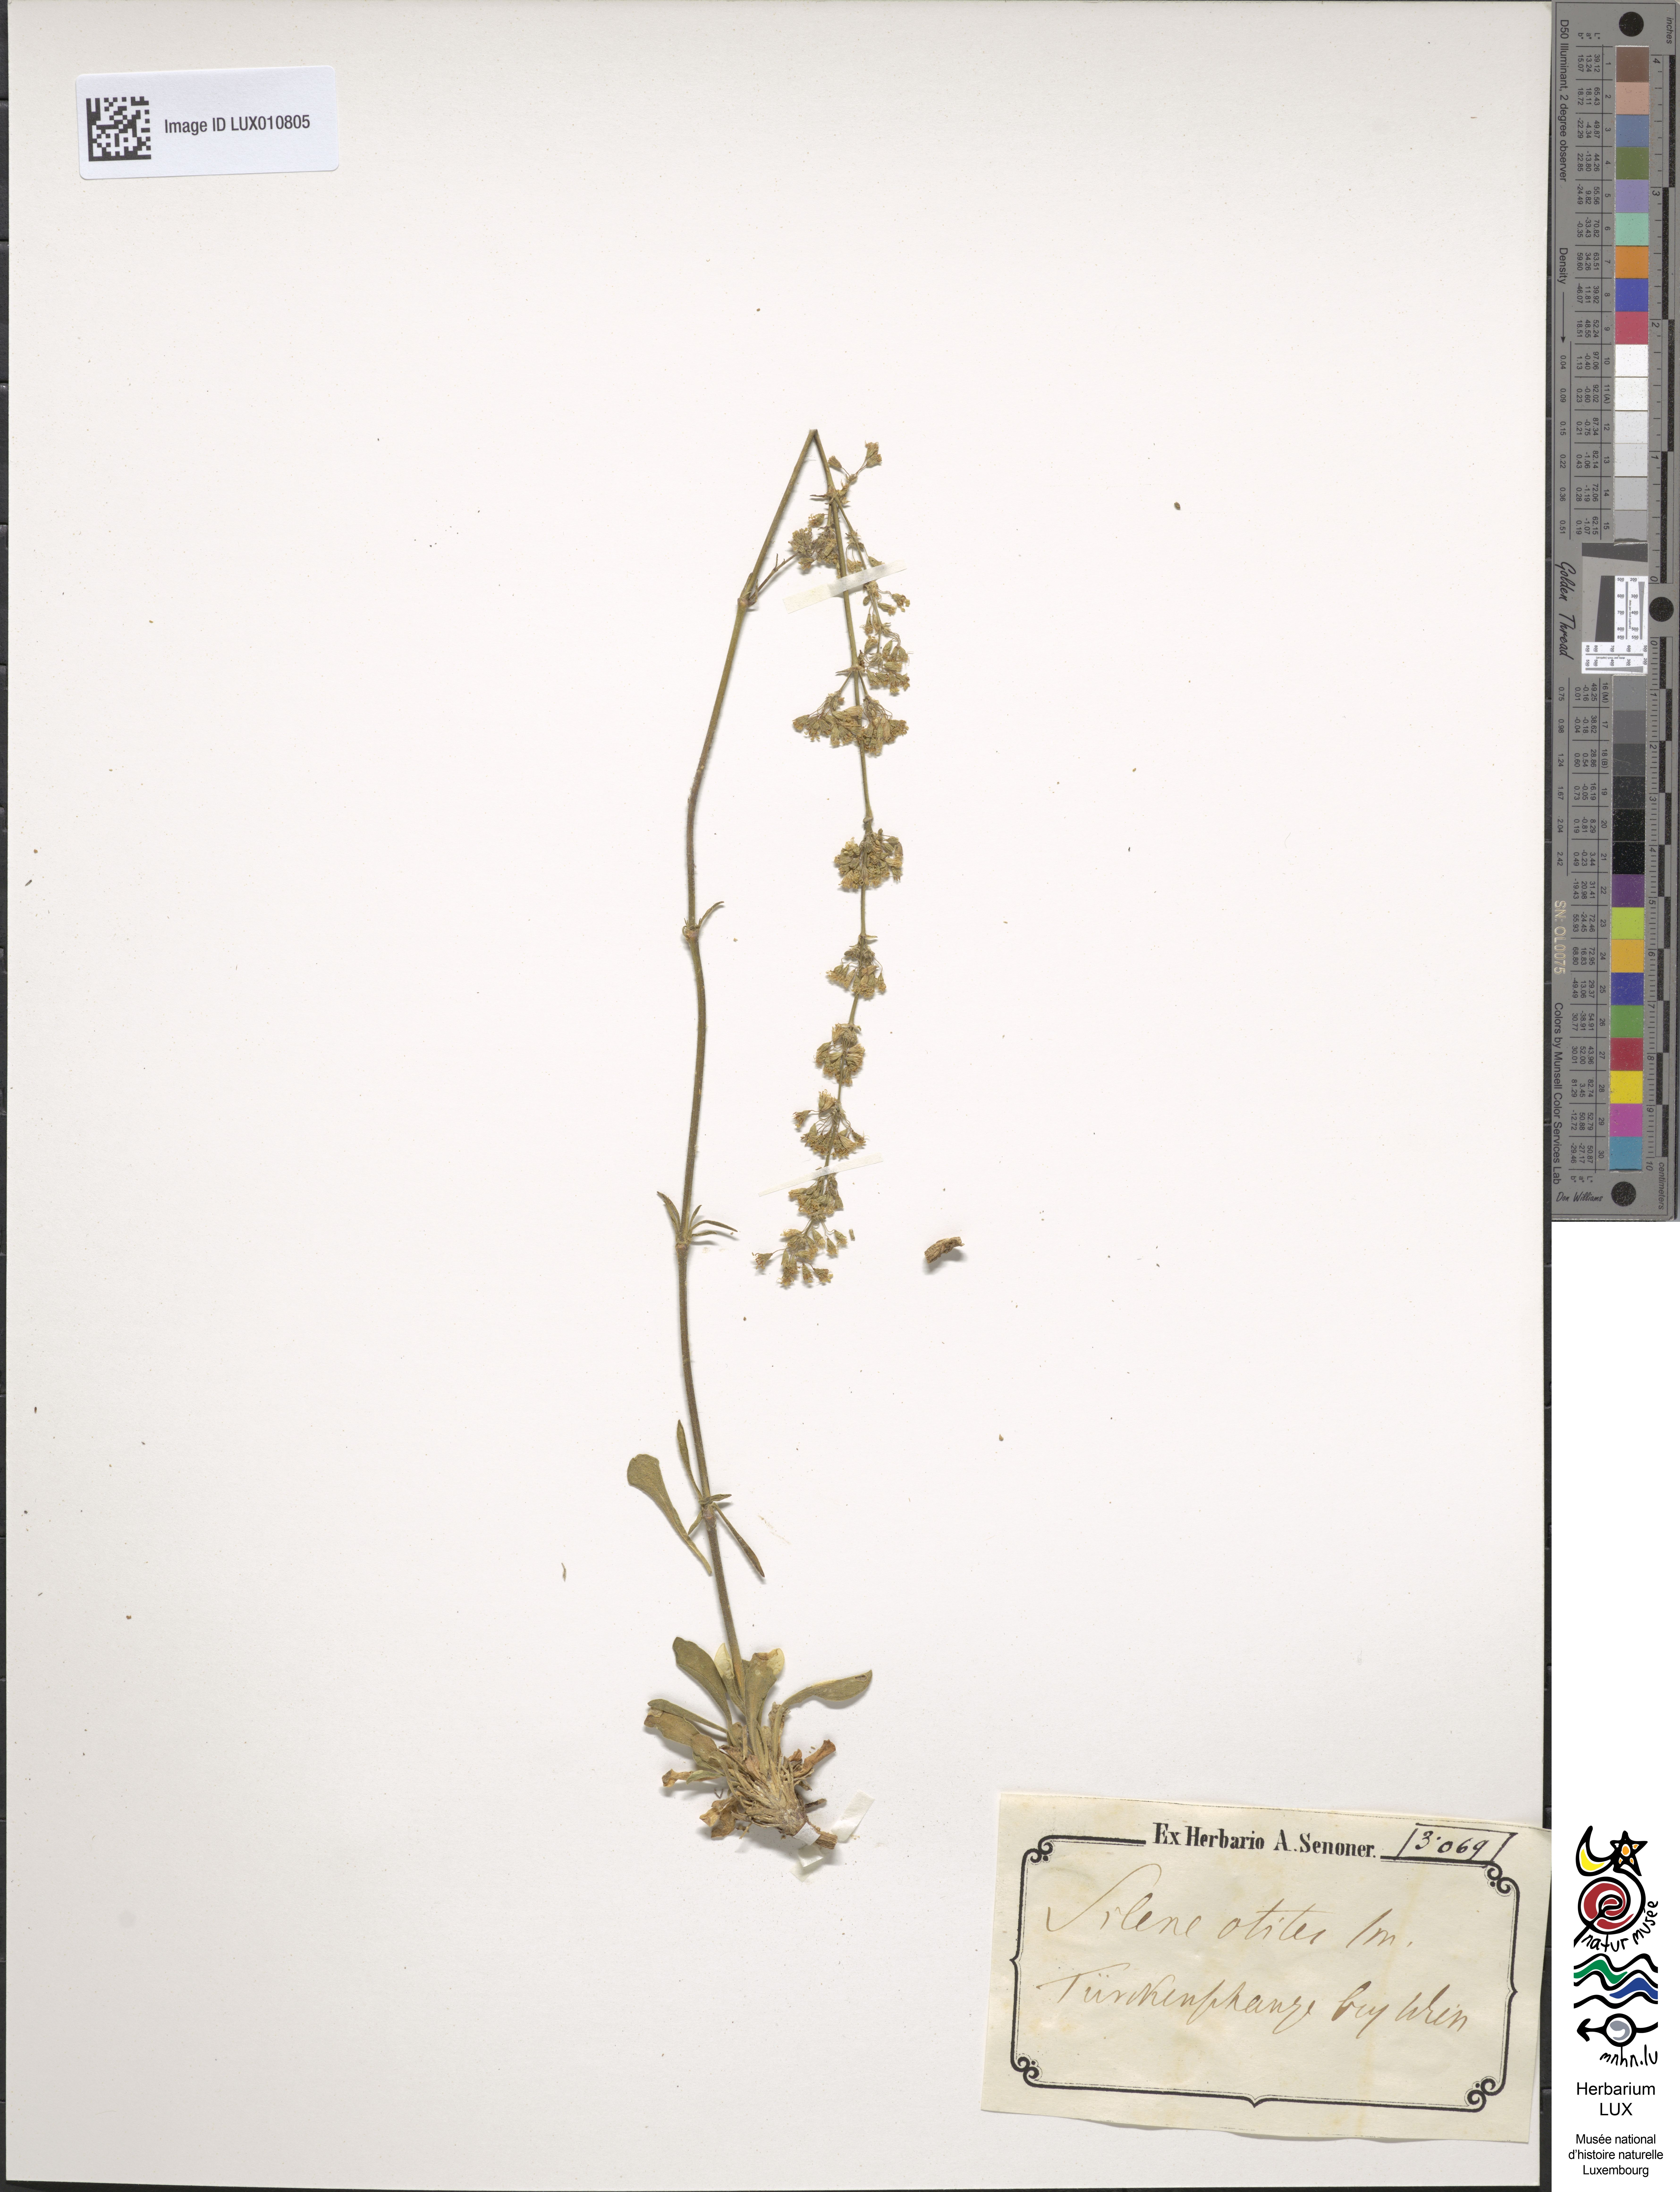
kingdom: Plantae
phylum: Tracheophyta
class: Magnoliopsida
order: Caryophyllales
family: Caryophyllaceae
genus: Silene
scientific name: Silene otites
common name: Spanish catchfly
